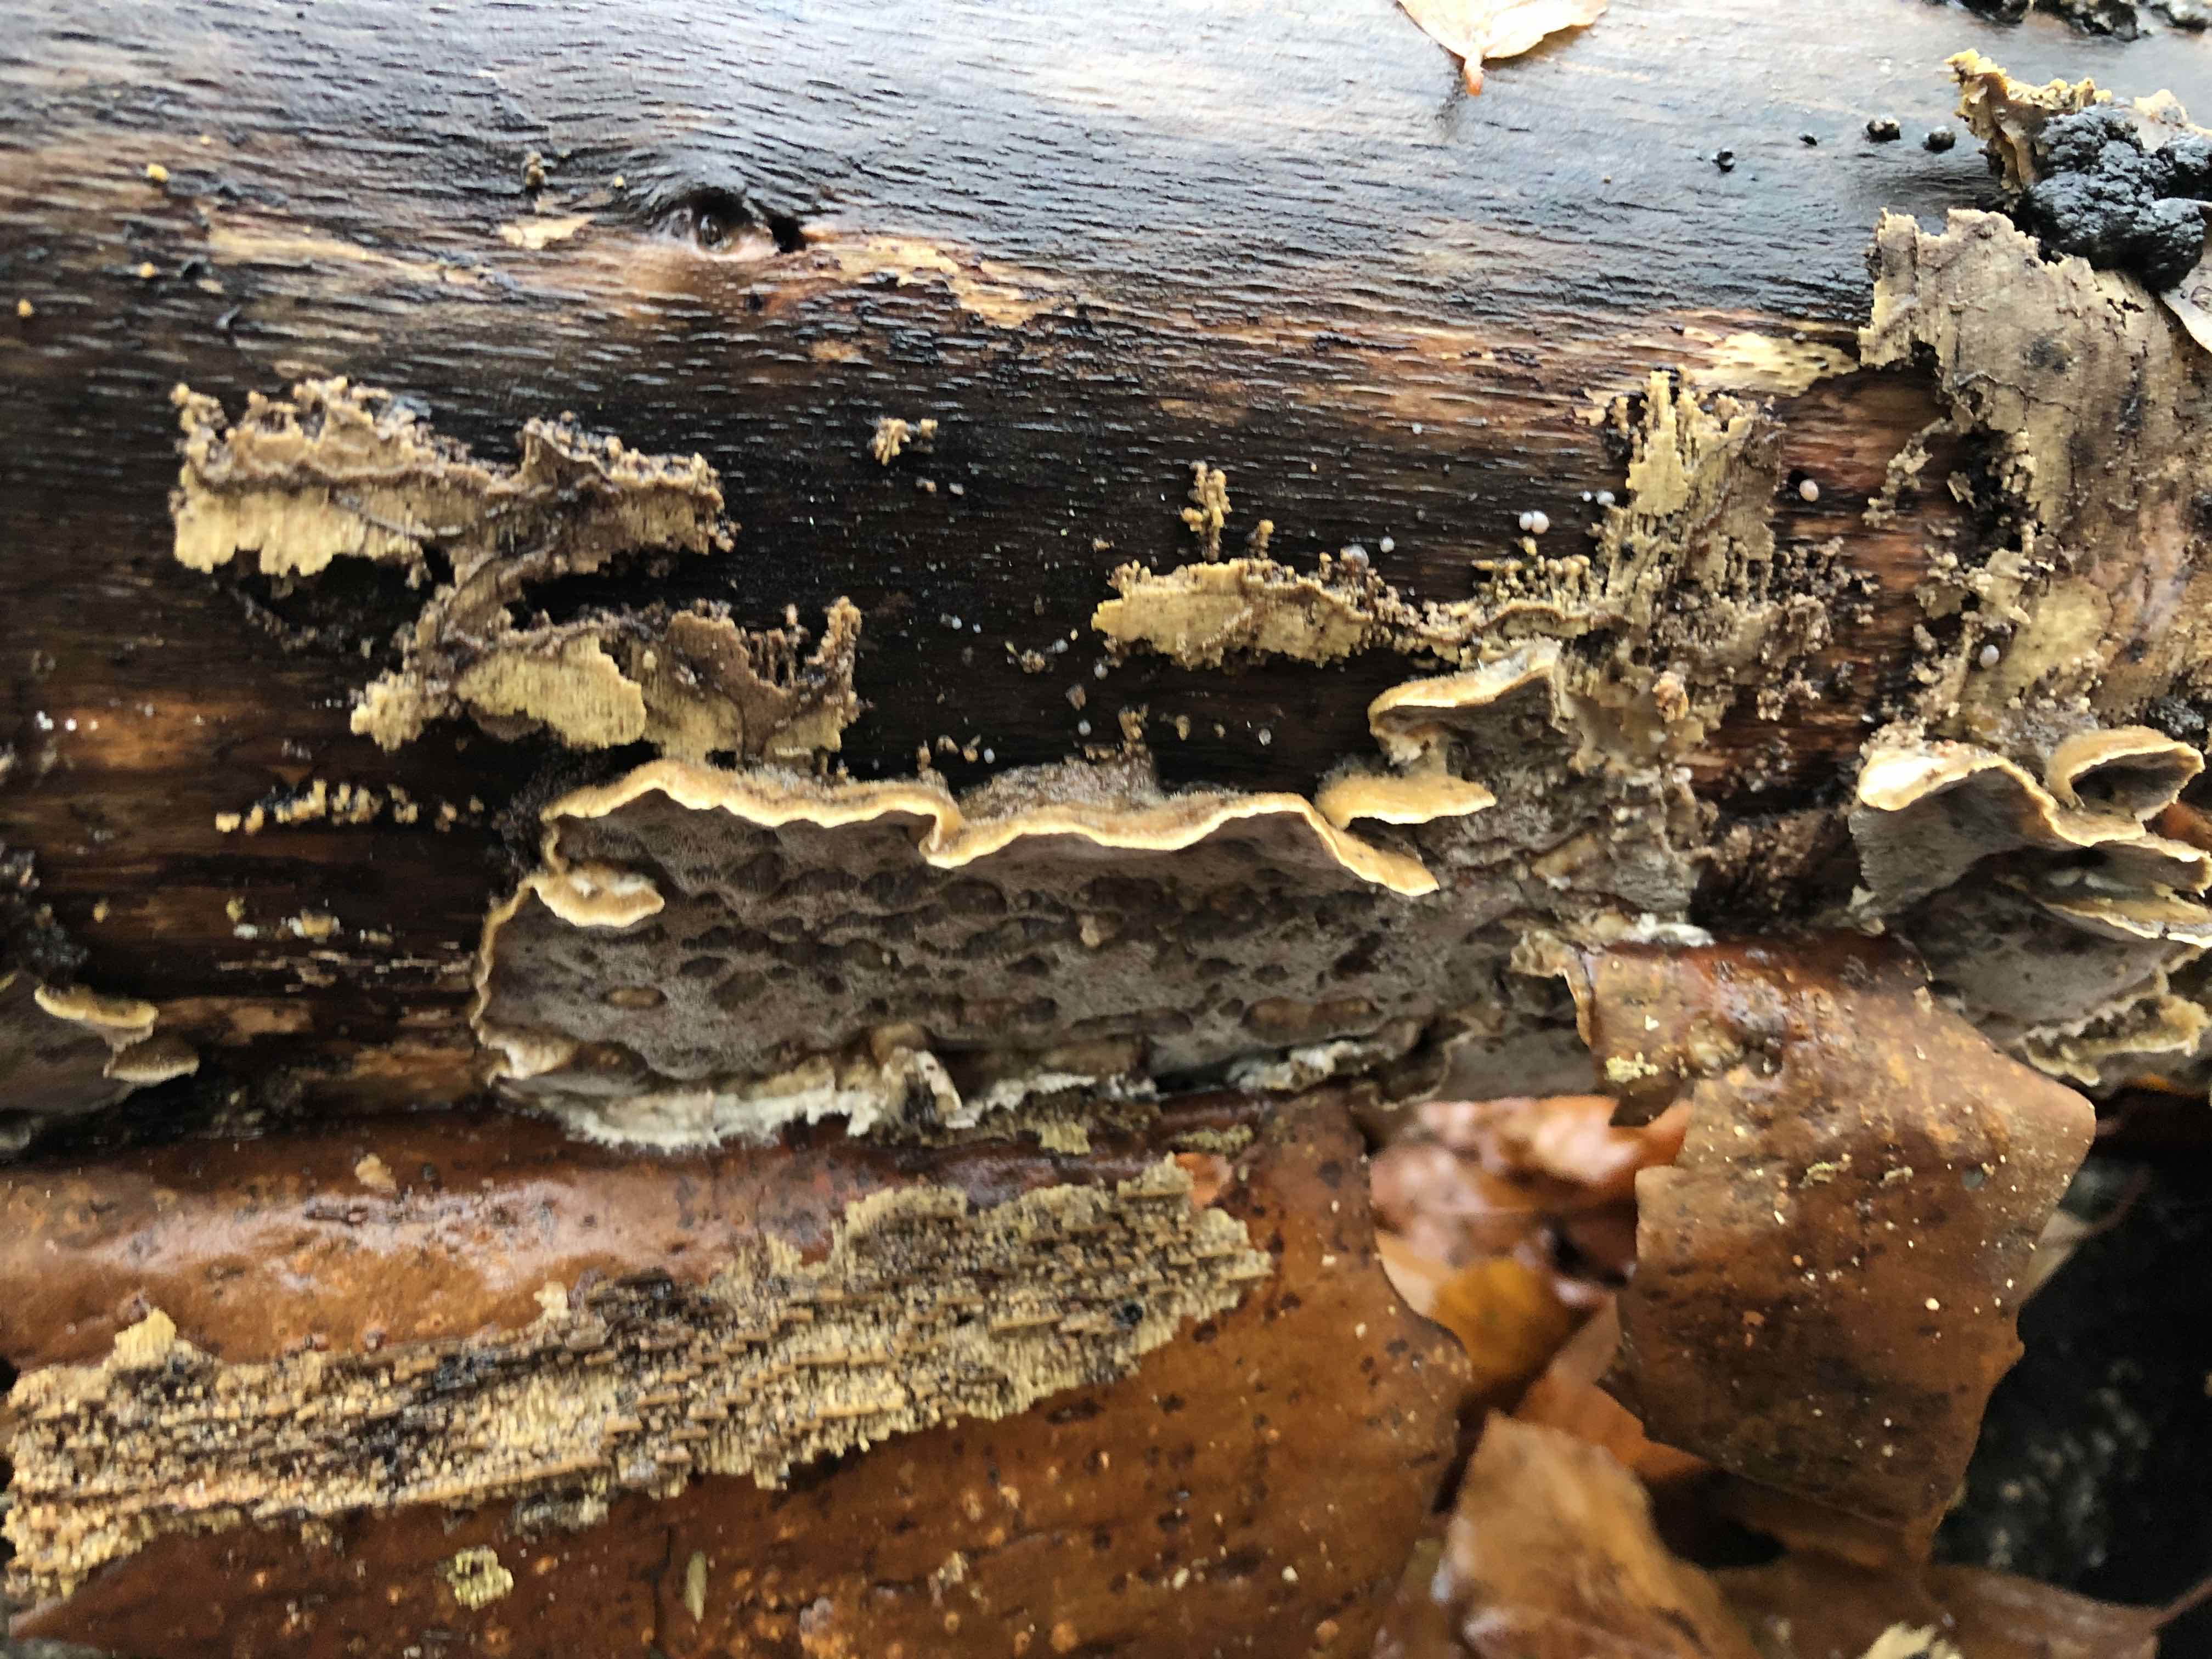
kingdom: Fungi
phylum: Basidiomycota
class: Agaricomycetes
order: Polyporales
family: Phanerochaetaceae
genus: Bjerkandera
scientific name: Bjerkandera adusta
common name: sveden sodporesvamp
